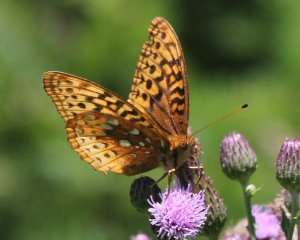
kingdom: Animalia
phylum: Arthropoda
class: Insecta
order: Lepidoptera
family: Nymphalidae
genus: Speyeria
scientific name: Speyeria cybele
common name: Great Spangled Fritillary
